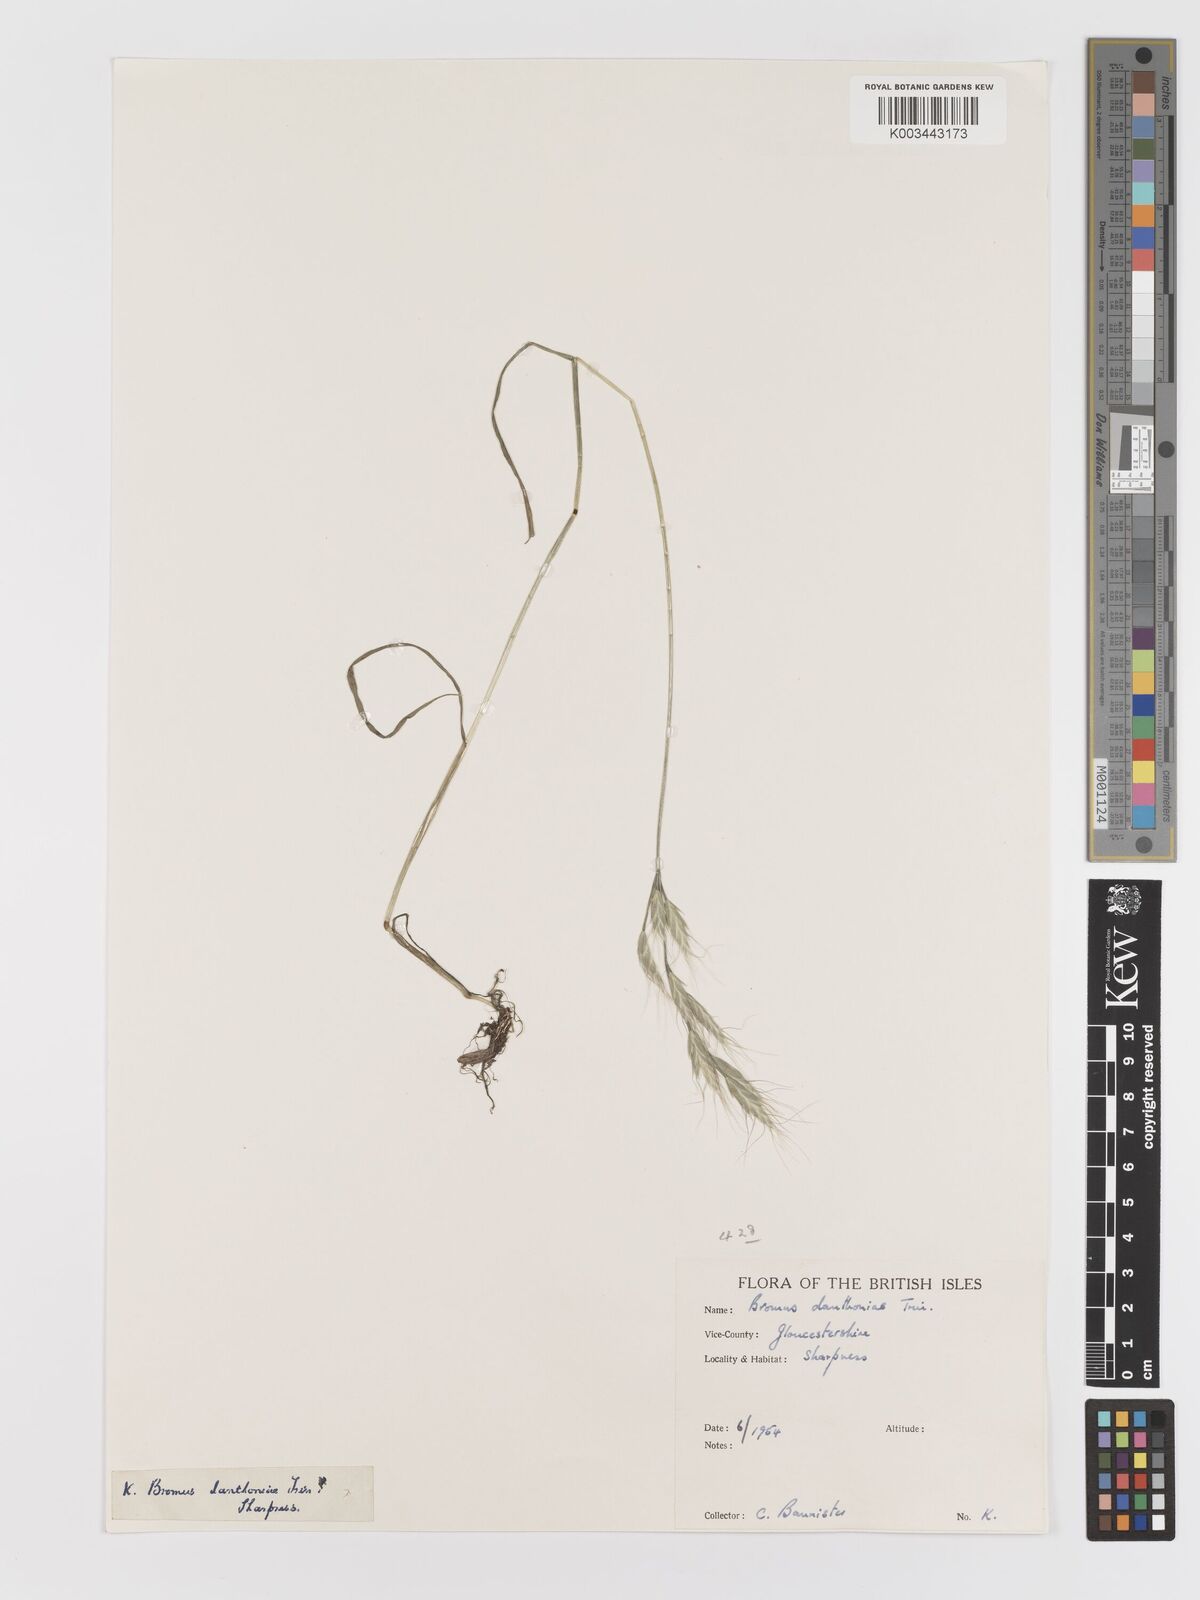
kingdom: Plantae
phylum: Tracheophyta
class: Liliopsida
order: Poales
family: Poaceae
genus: Bromus
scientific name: Bromus danthoniae
